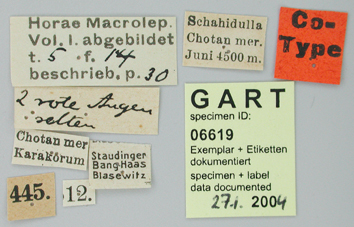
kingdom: Animalia
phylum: Arthropoda
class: Insecta
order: Lepidoptera
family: Papilionidae
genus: Parnassius
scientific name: Parnassius staudingeri
